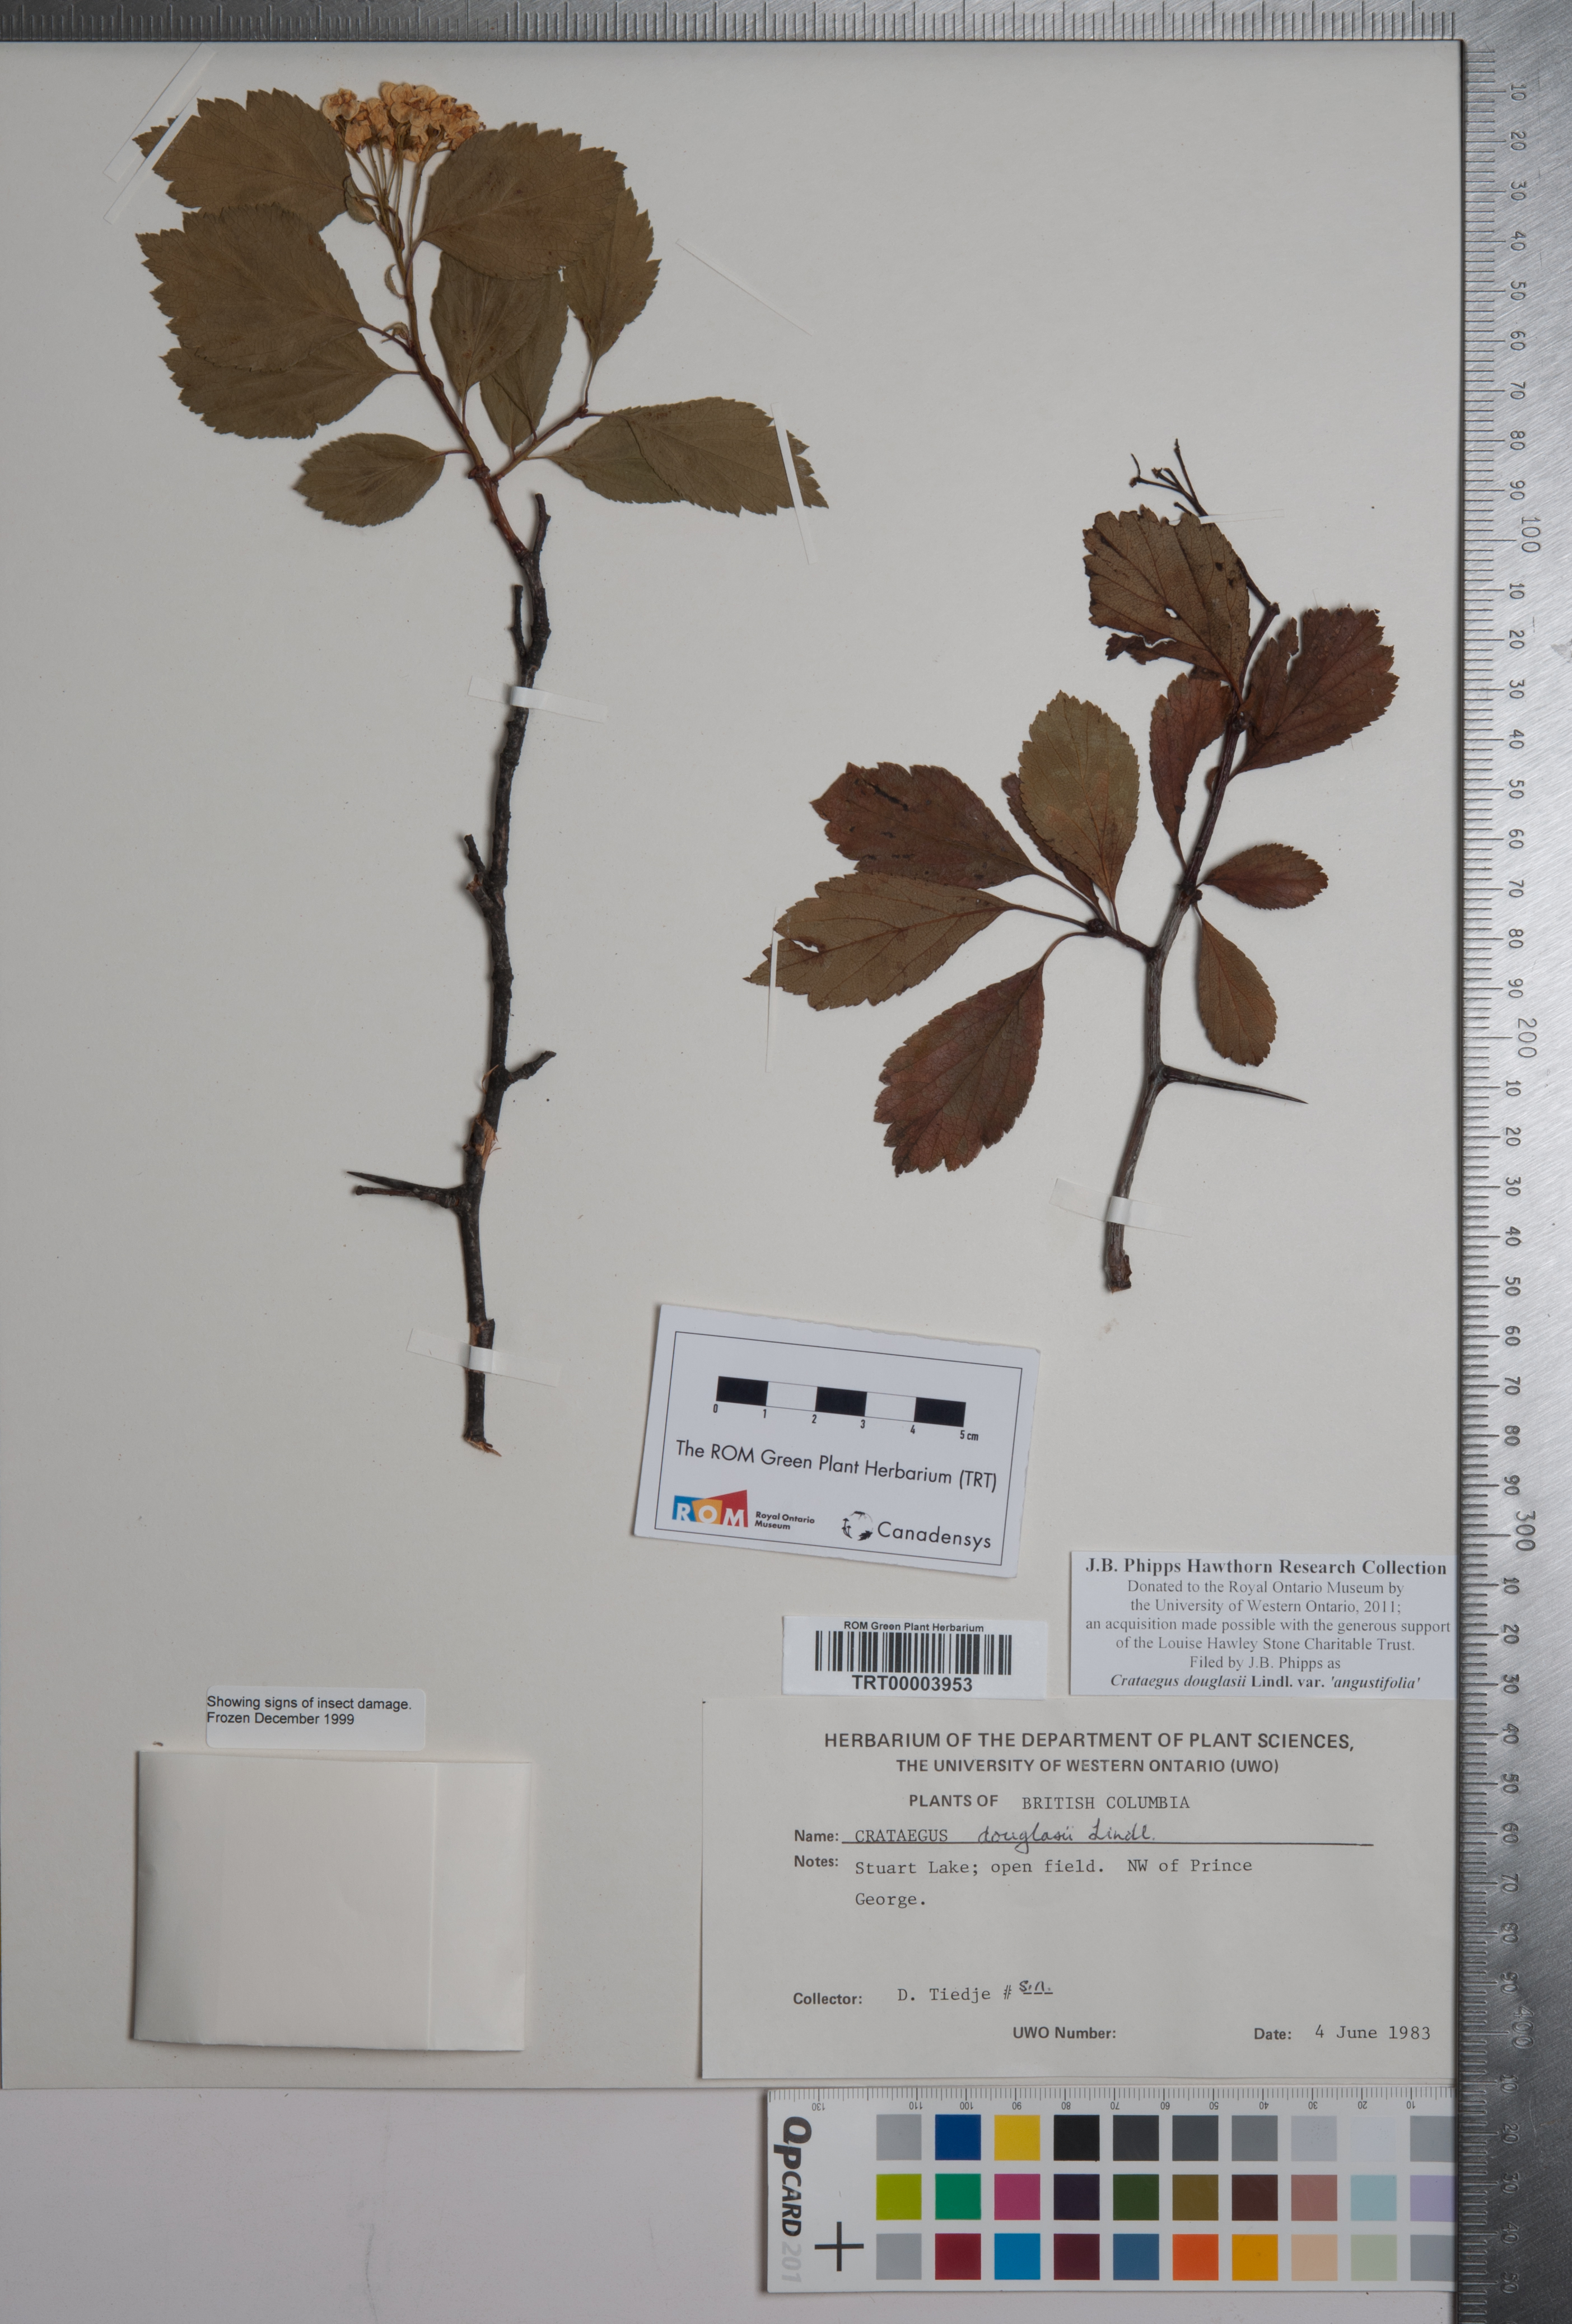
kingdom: Plantae
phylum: Tracheophyta
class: Magnoliopsida
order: Rosales
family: Rosaceae
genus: Crataegus
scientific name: Crataegus douglasii
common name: Black hawthorn
